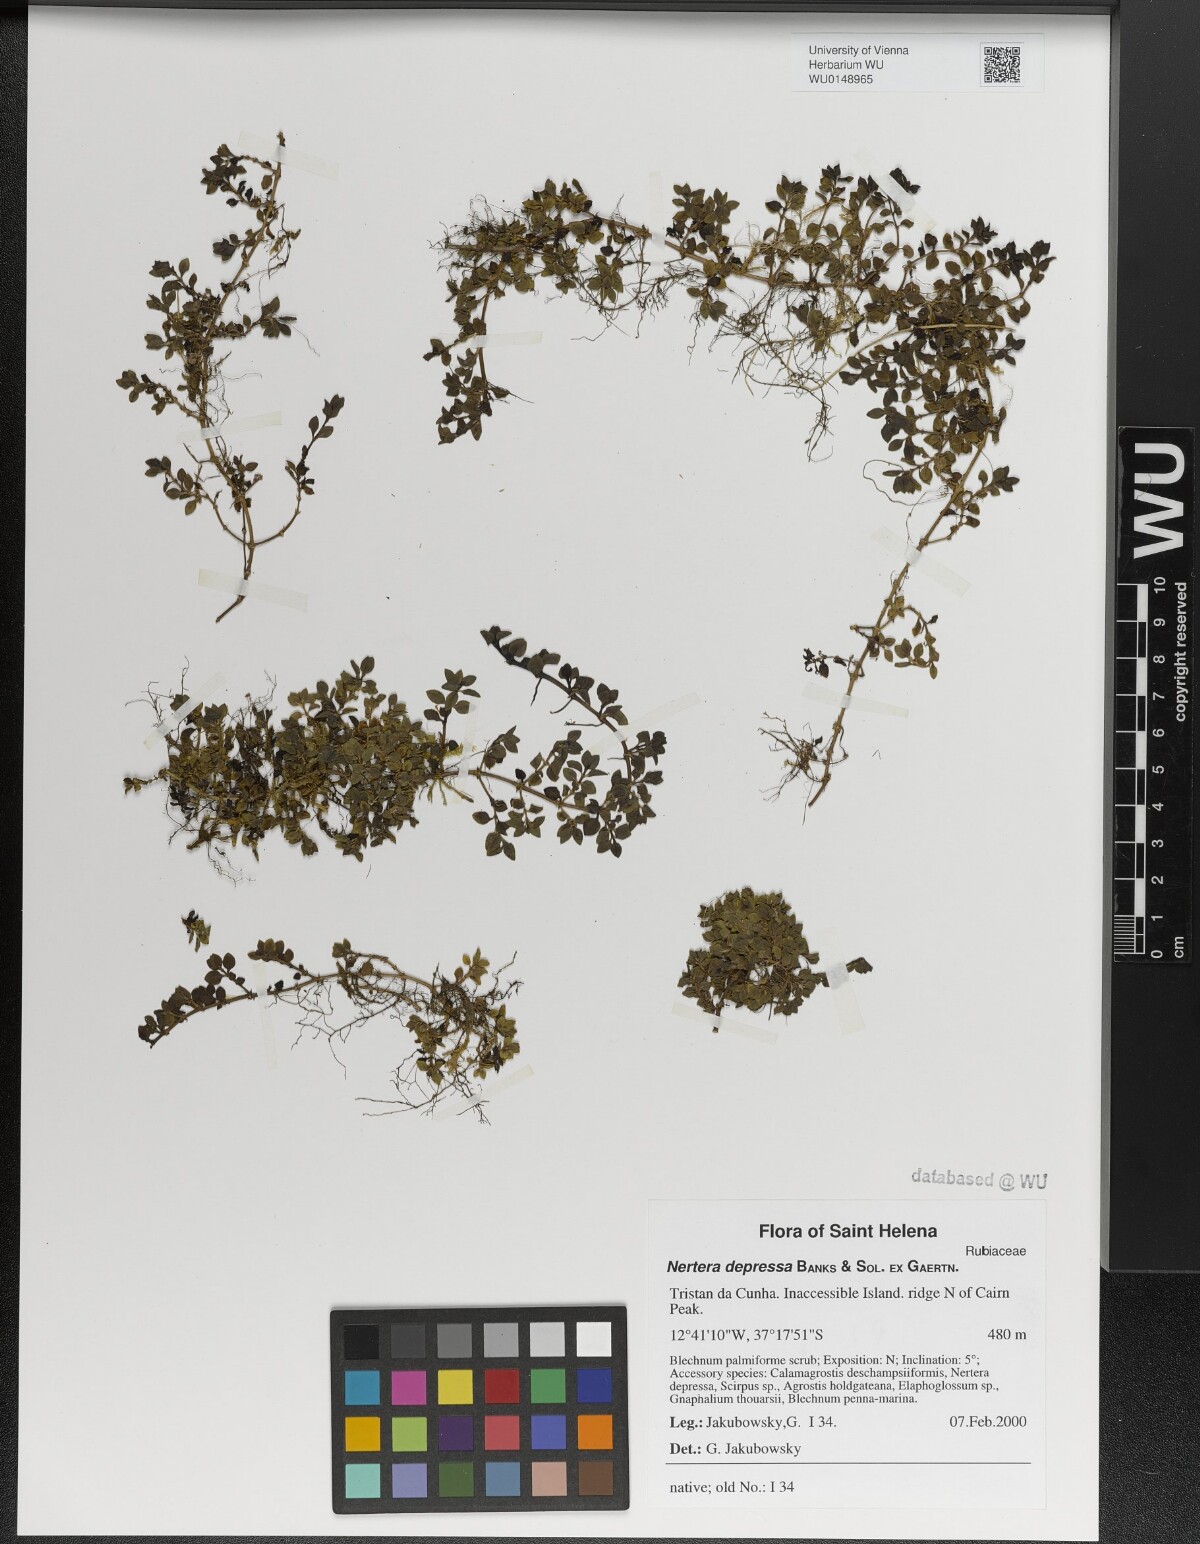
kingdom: Plantae
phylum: Tracheophyta
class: Magnoliopsida
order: Gentianales
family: Rubiaceae
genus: Nertera
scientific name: Nertera granadensis
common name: Beadplant
